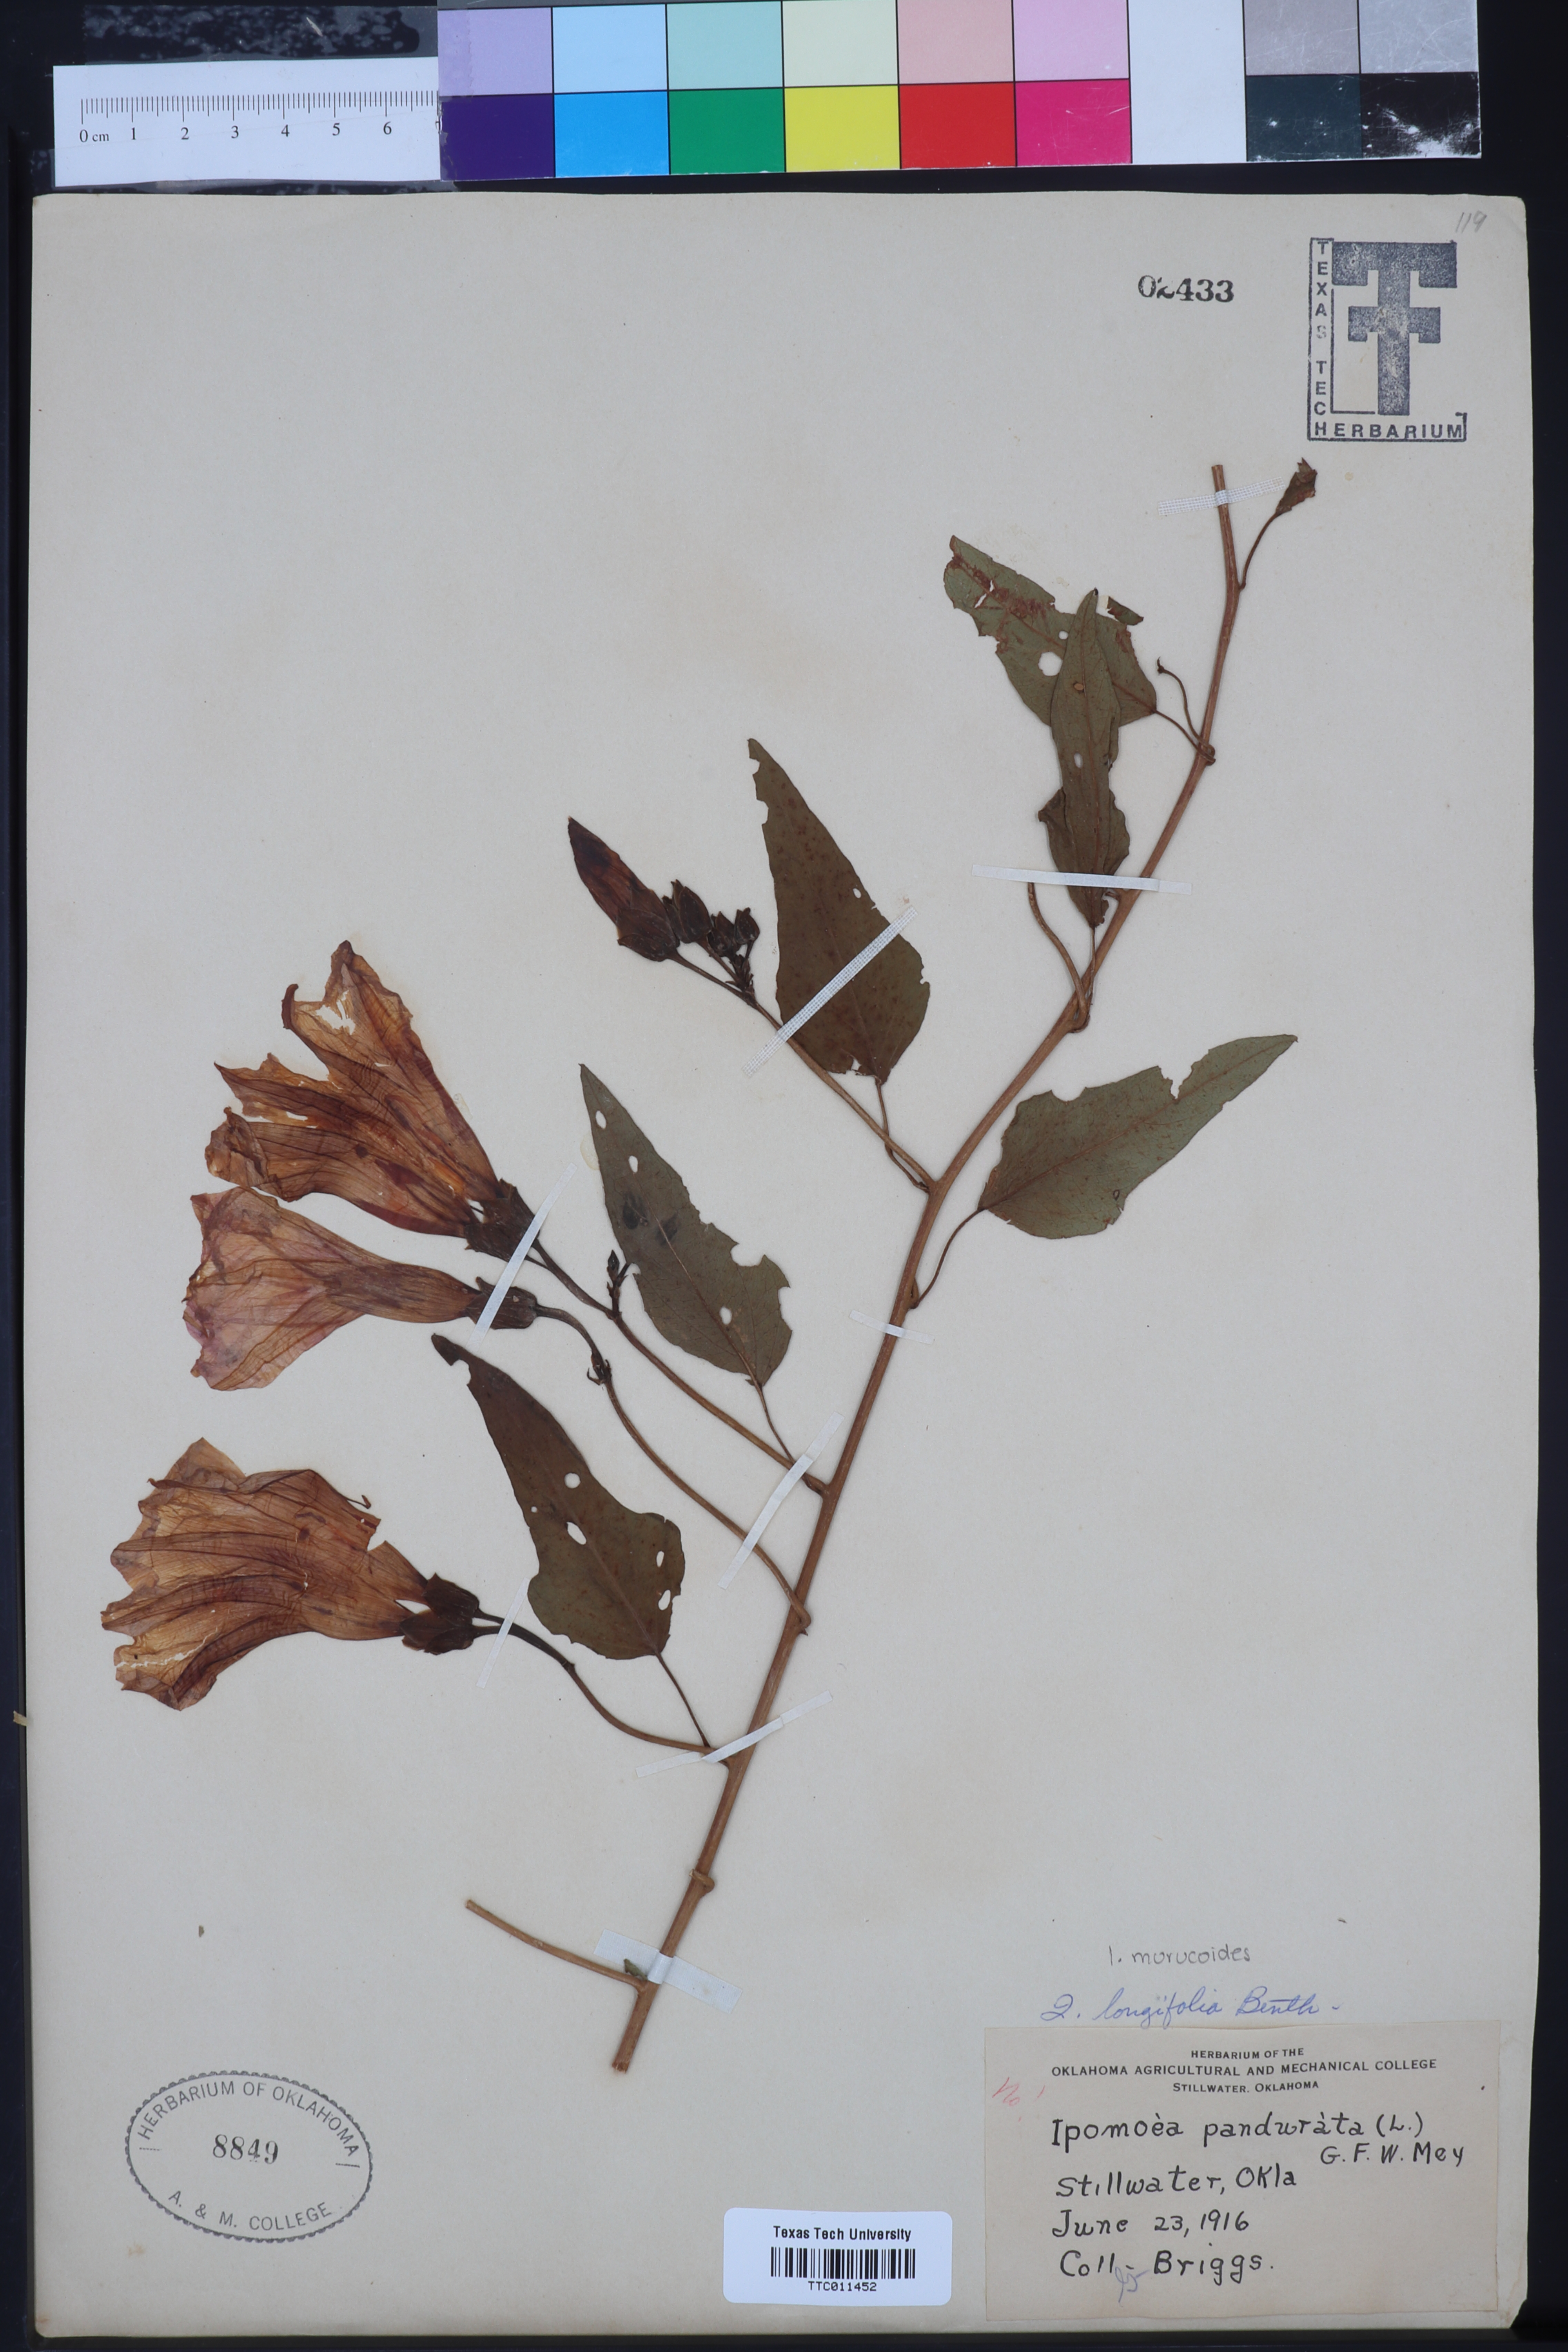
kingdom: Plantae
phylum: Tracheophyta
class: Magnoliopsida
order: Solanales
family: Convolvulaceae
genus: Ipomoea
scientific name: Ipomoea longifolia
